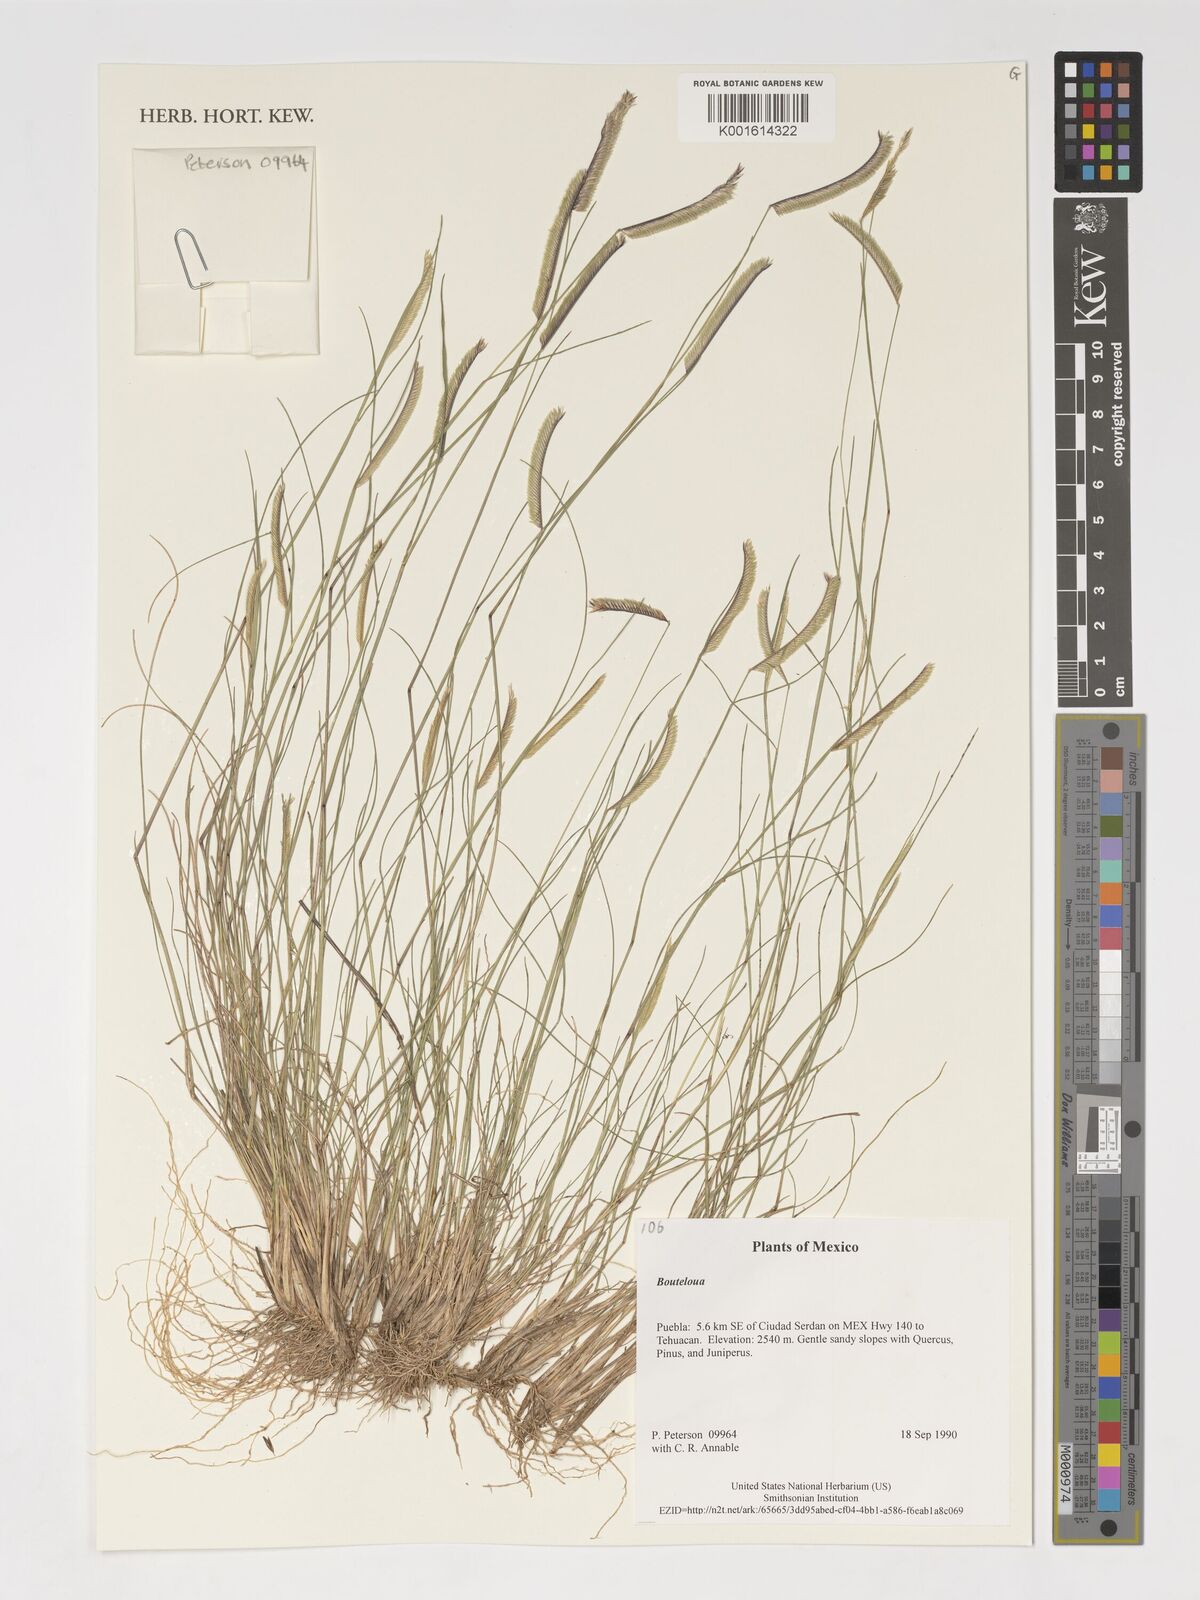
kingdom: Plantae
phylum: Tracheophyta
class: Liliopsida
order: Poales
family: Poaceae
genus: Bouteloua
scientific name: Bouteloua
